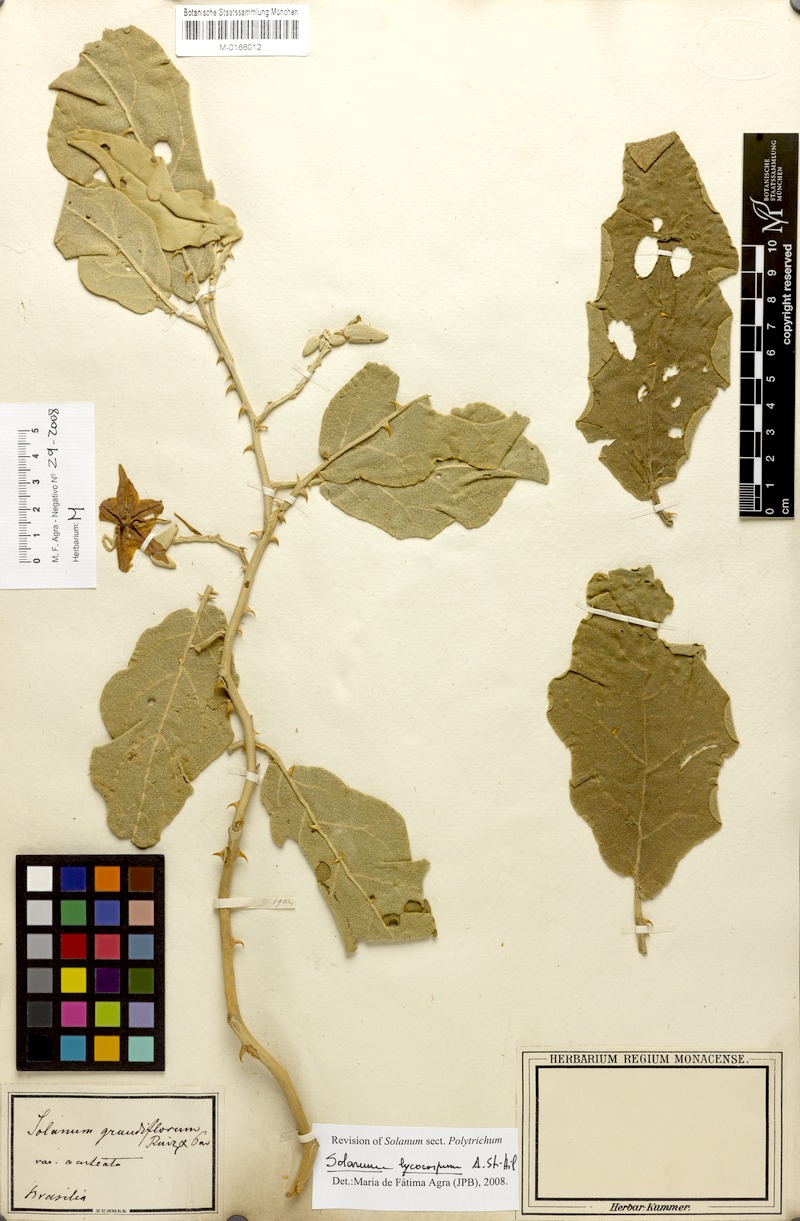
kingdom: Plantae
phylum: Tracheophyta
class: Magnoliopsida
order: Solanales
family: Solanaceae
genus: Solanum
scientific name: Solanum lycocarpum
